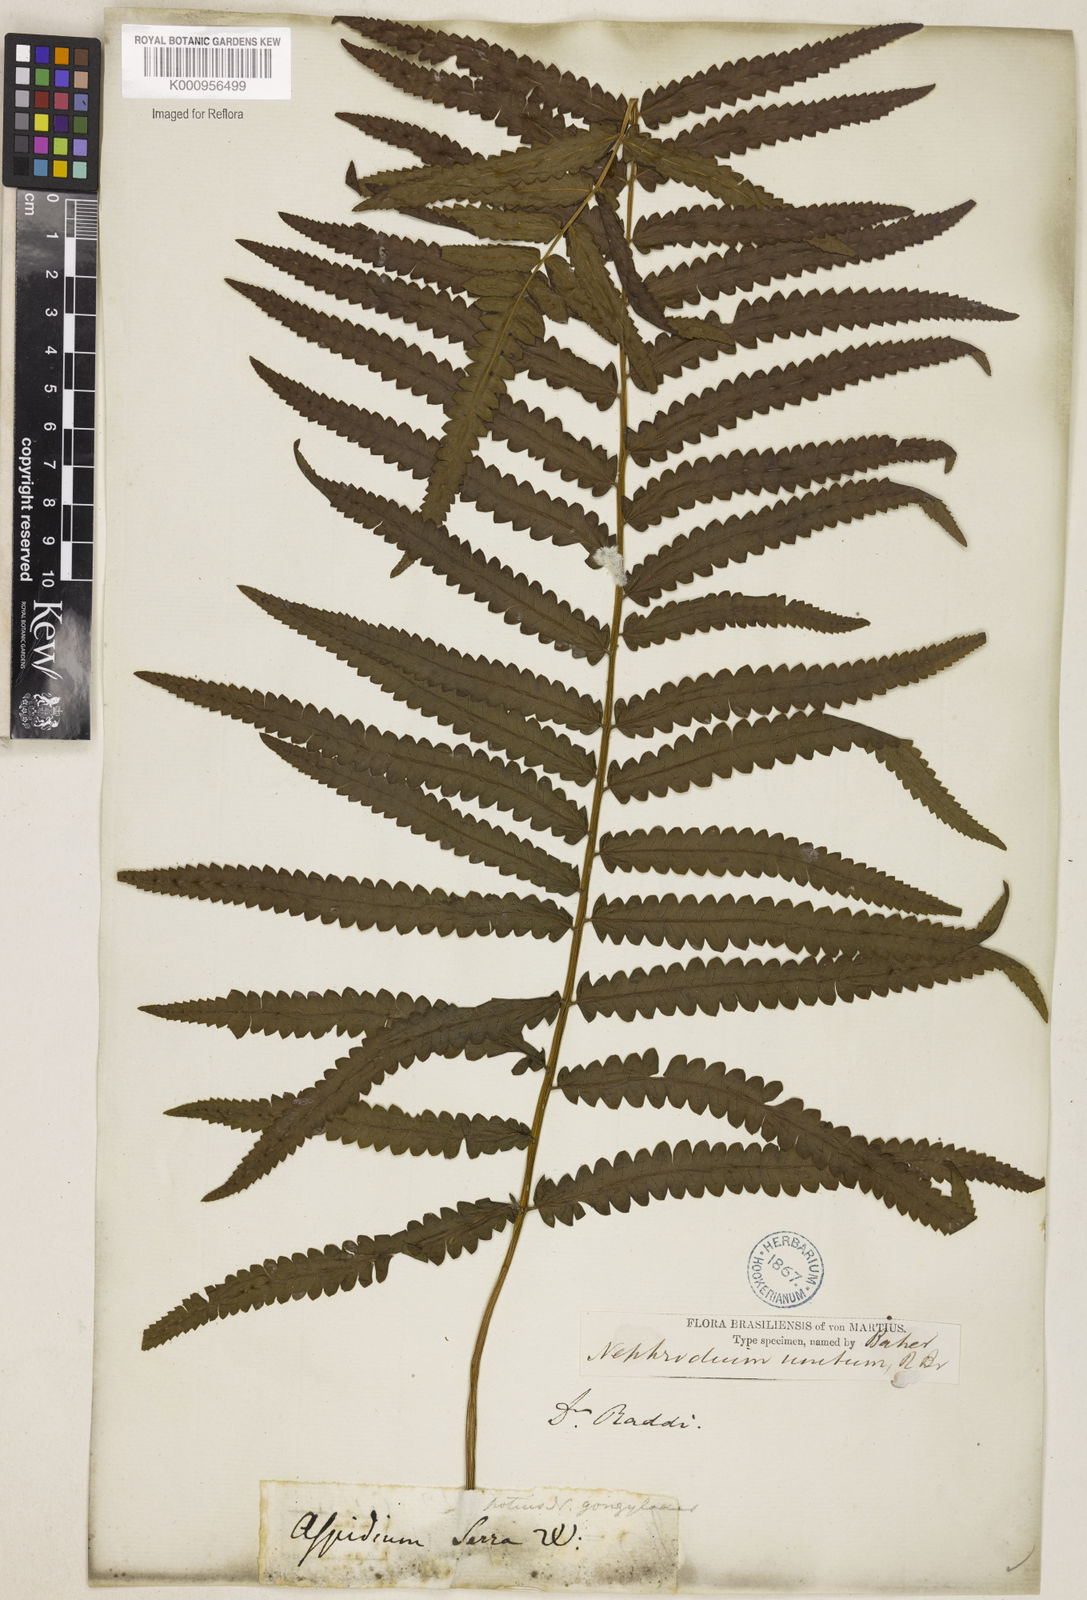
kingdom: Plantae
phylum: Tracheophyta
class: Polypodiopsida
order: Polypodiales
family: Thelypteridaceae
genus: Cyclosorus
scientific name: Cyclosorus interruptus
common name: Neke fern
